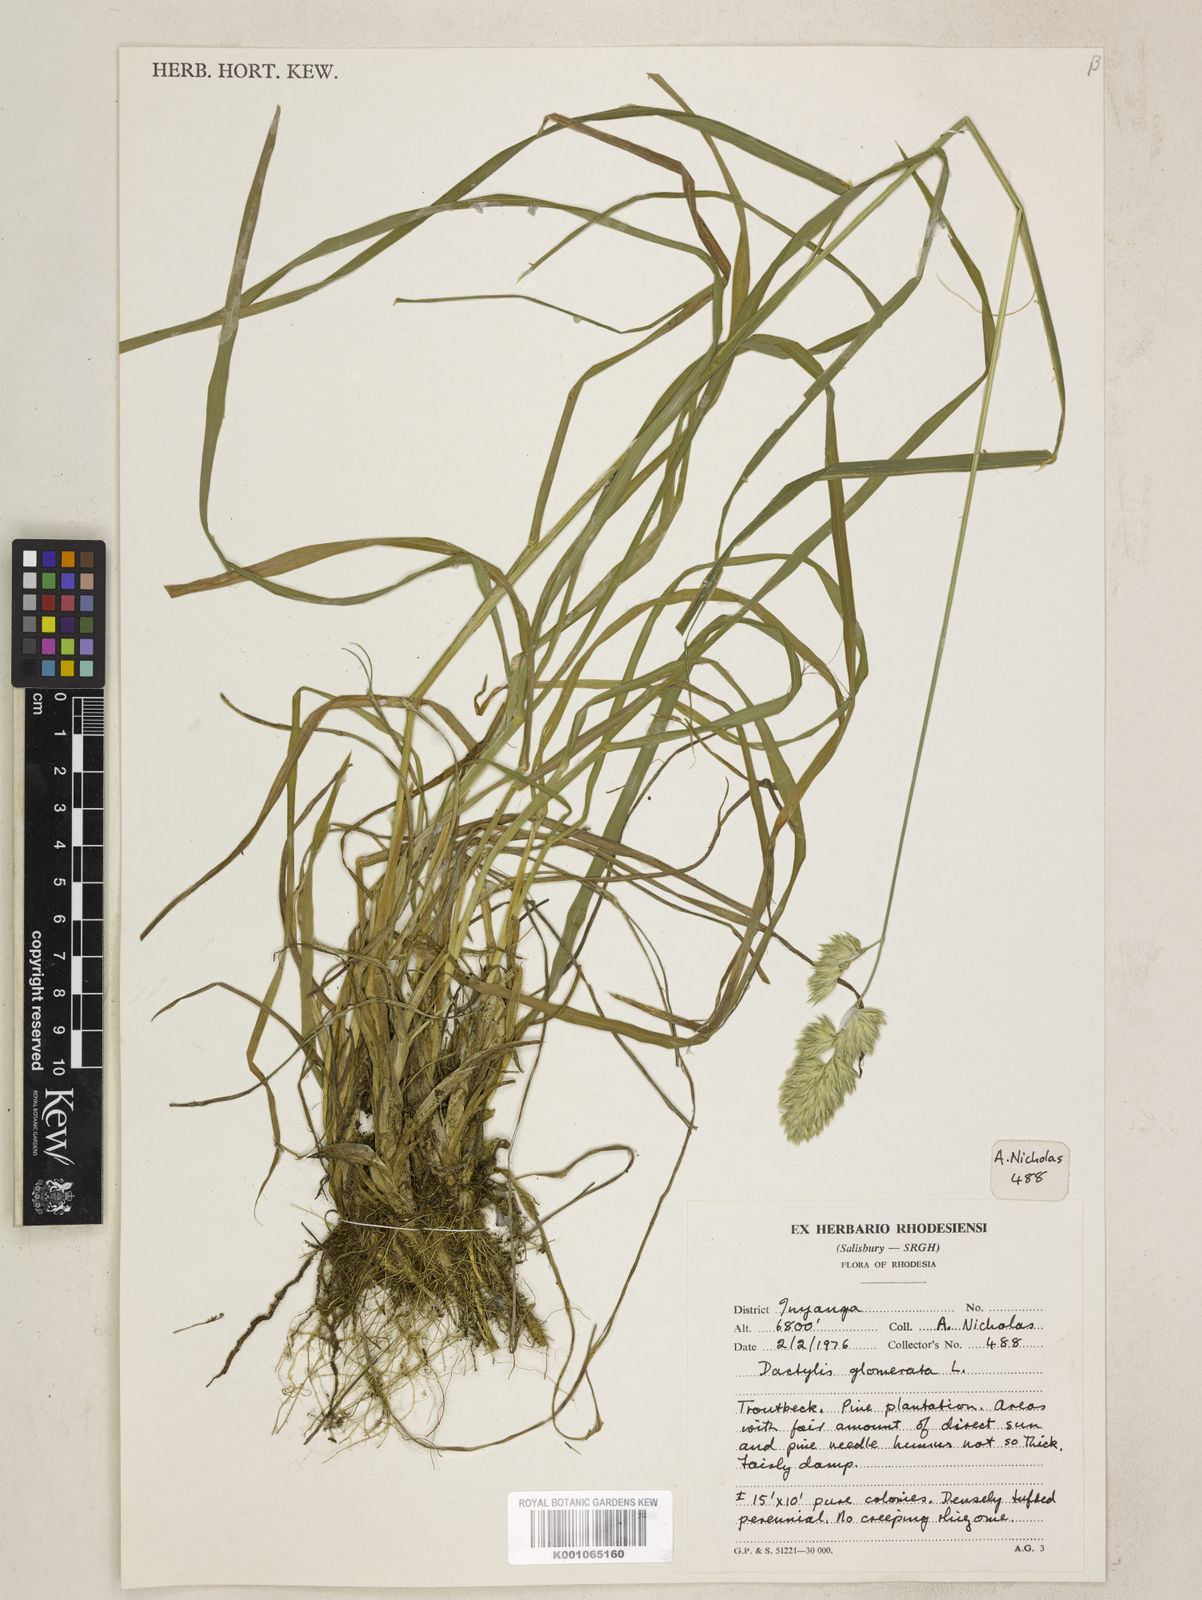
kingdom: Plantae
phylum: Tracheophyta
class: Liliopsida
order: Poales
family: Poaceae
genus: Dactylis
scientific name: Dactylis glomerata
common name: Orchardgrass
